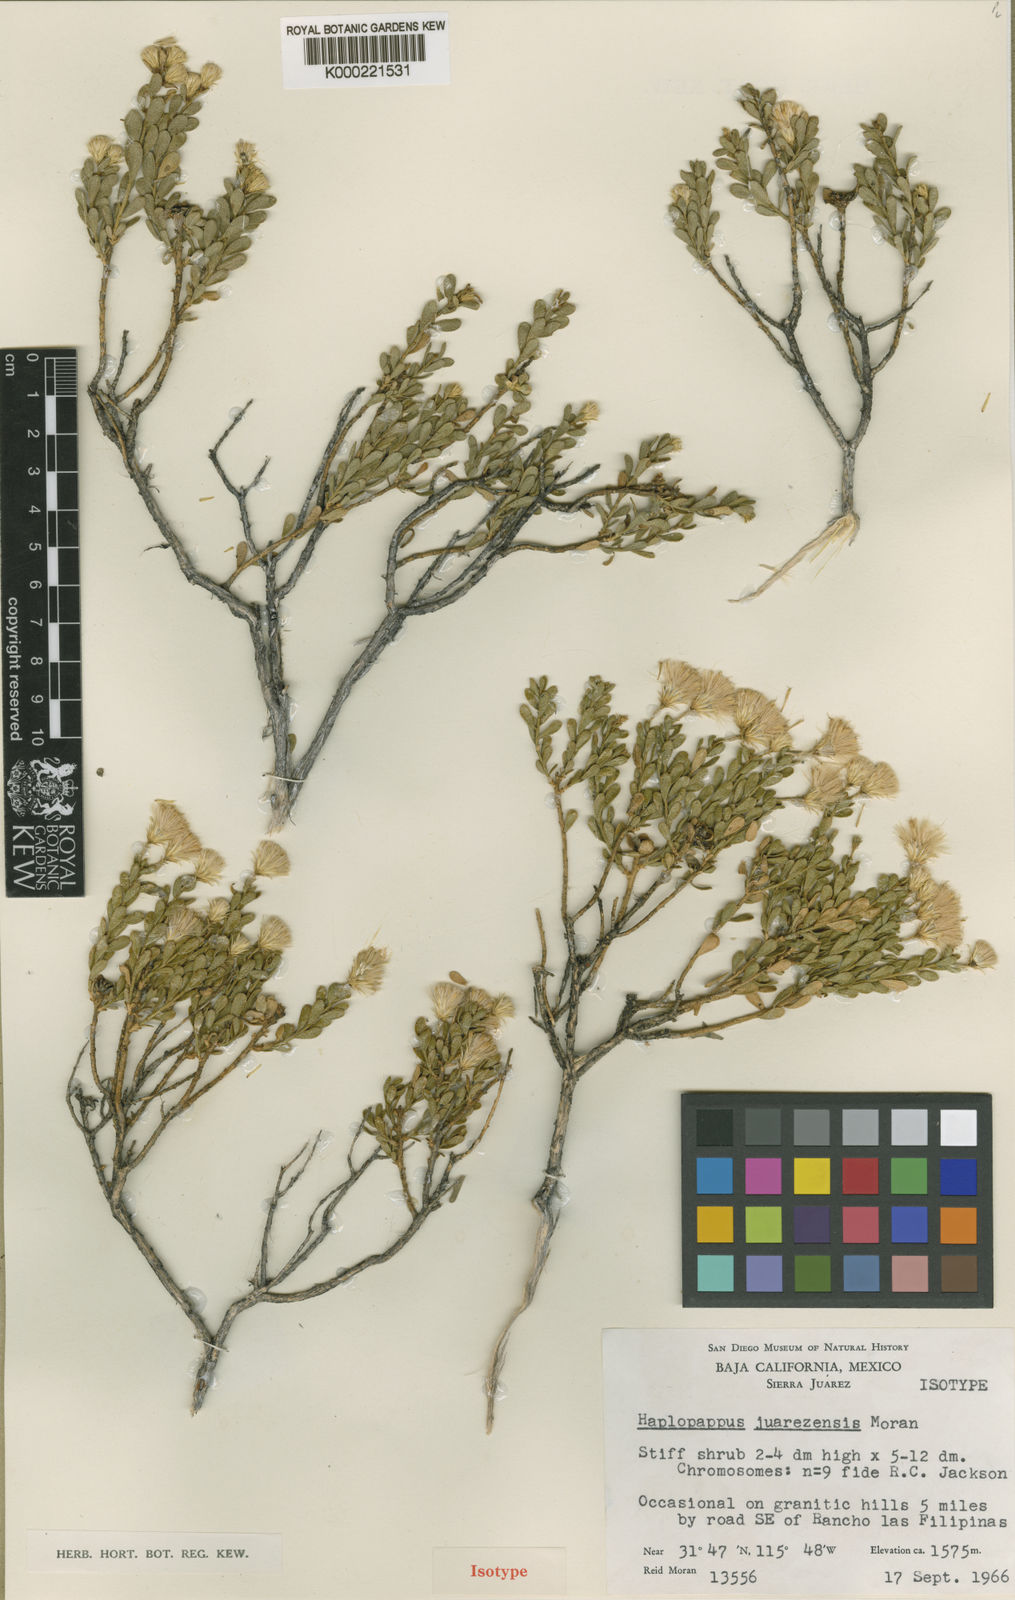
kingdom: Plantae
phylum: Tracheophyta
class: Magnoliopsida
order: Asterales
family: Asteraceae
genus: Ericameria
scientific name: Ericameria juarezensis
